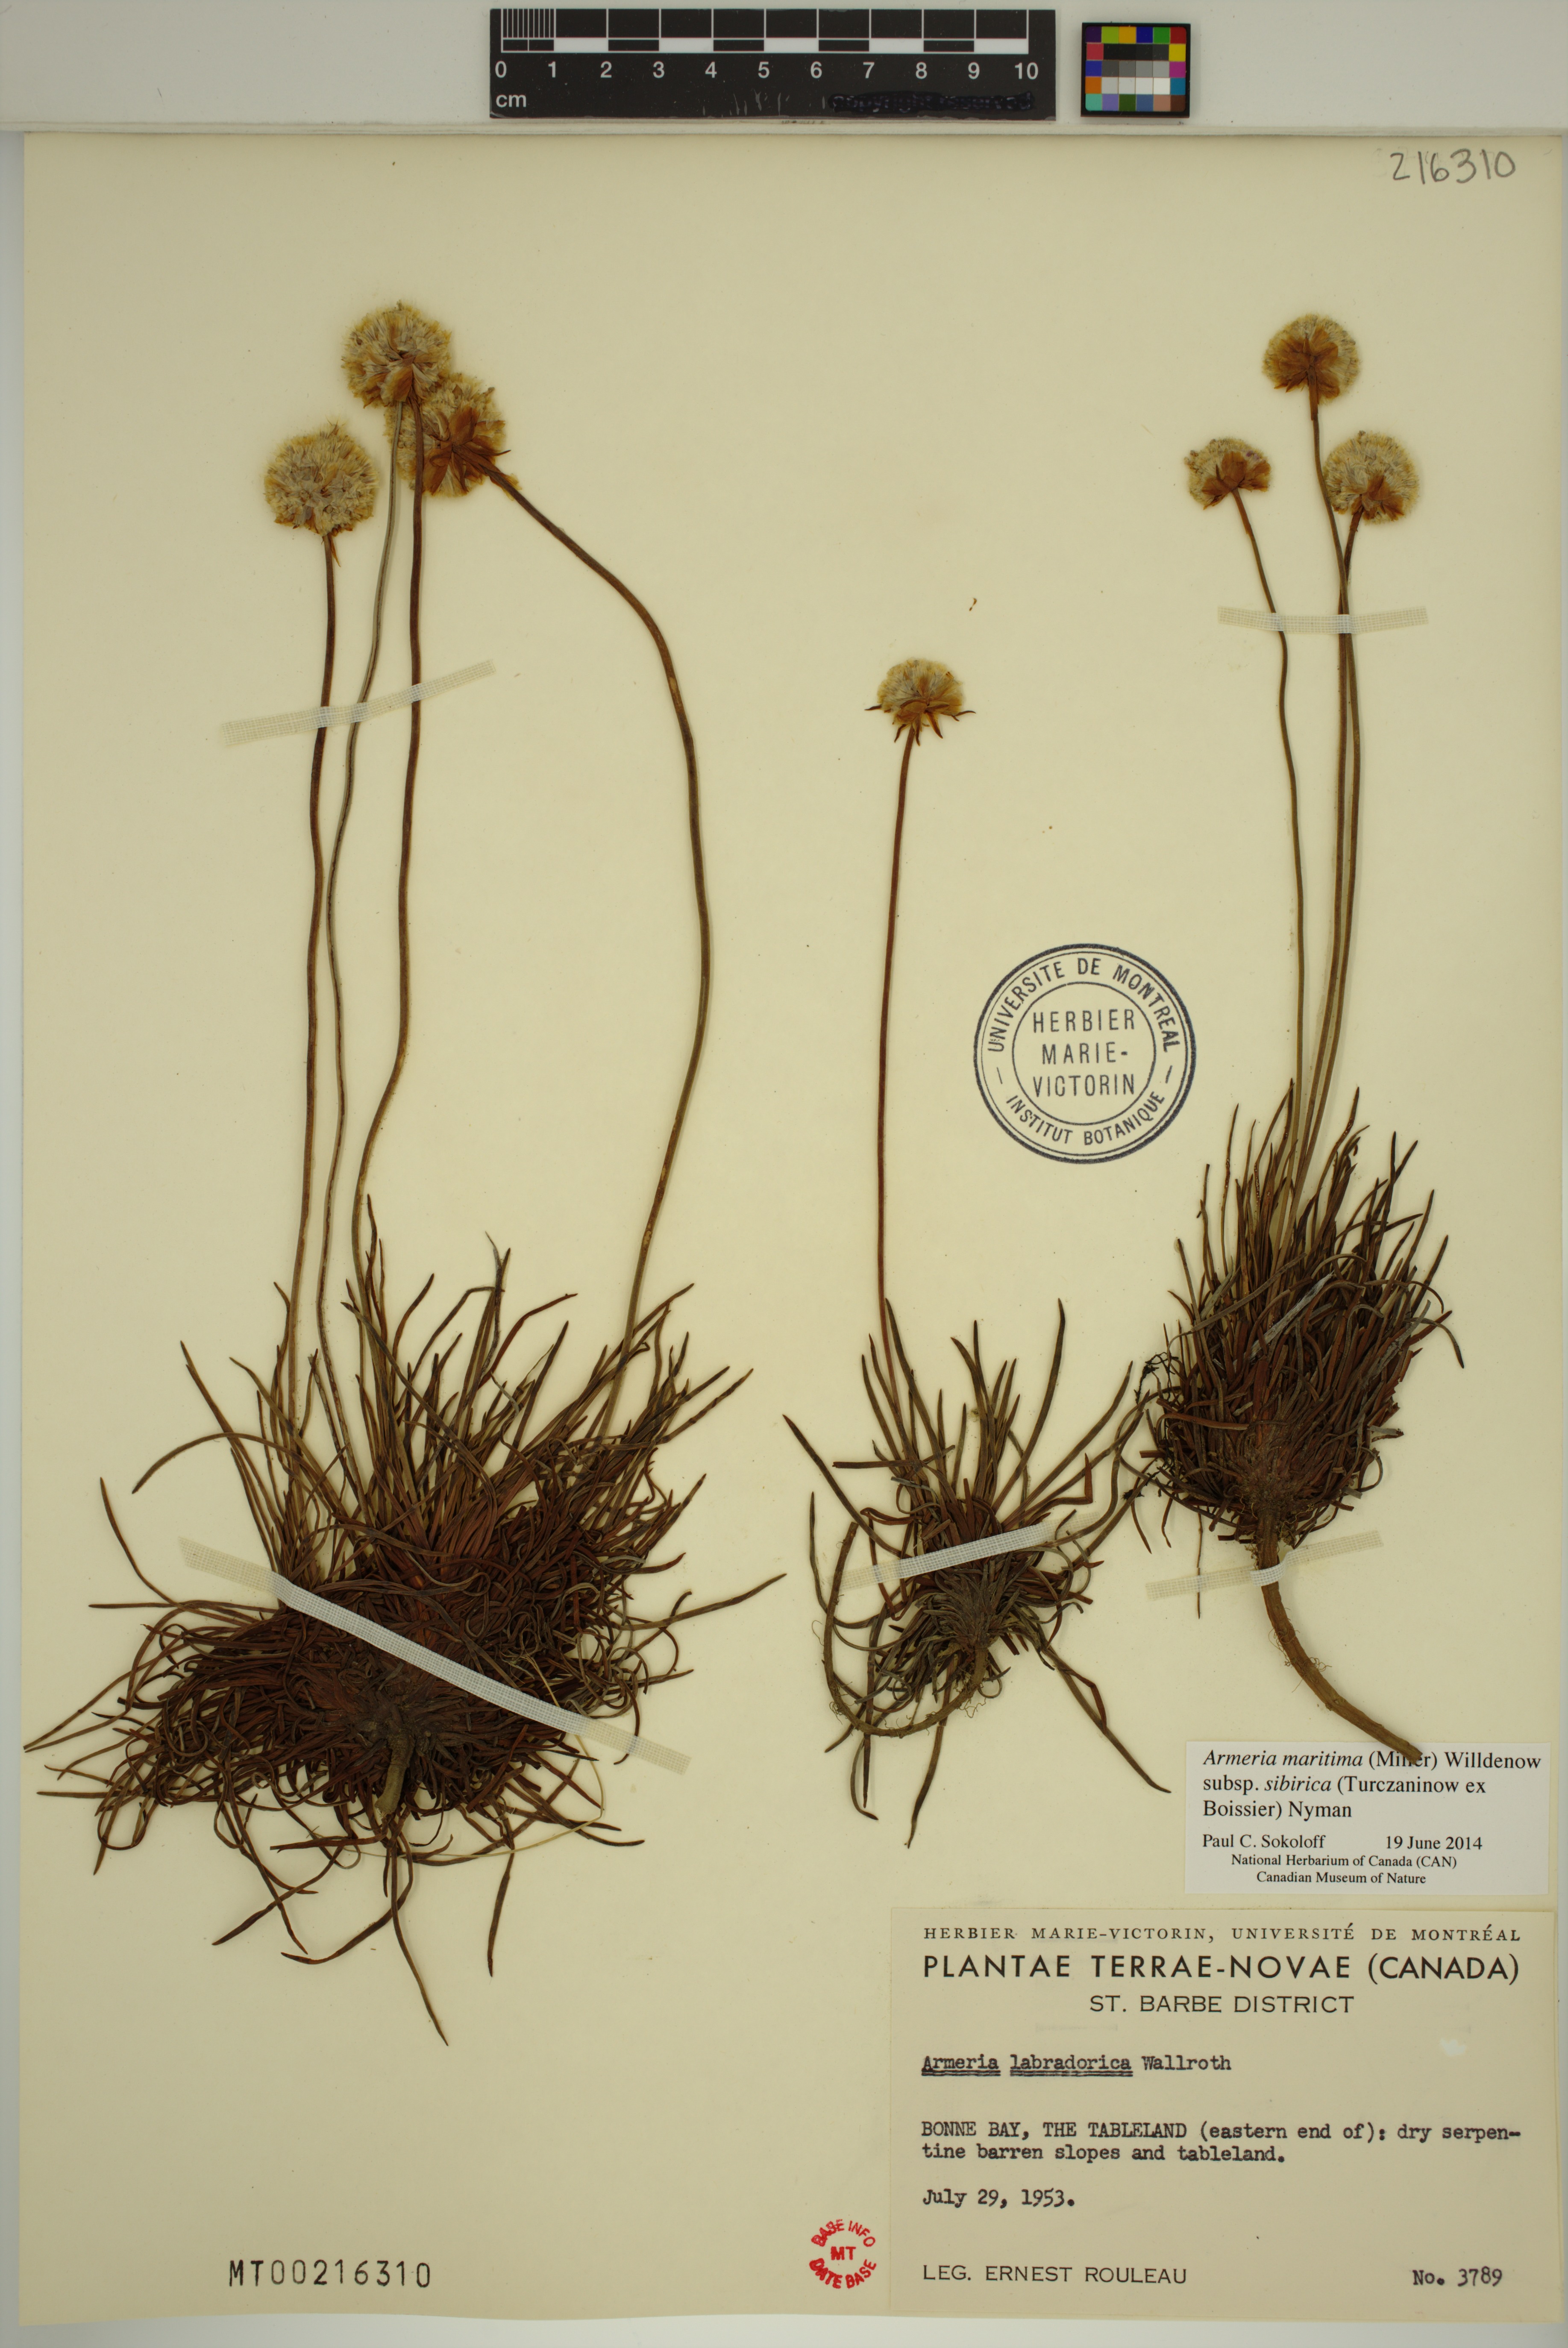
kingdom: Plantae
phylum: Tracheophyta
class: Magnoliopsida
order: Caryophyllales
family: Plumbaginaceae
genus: Armeria
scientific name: Armeria maritima
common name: Thrift
